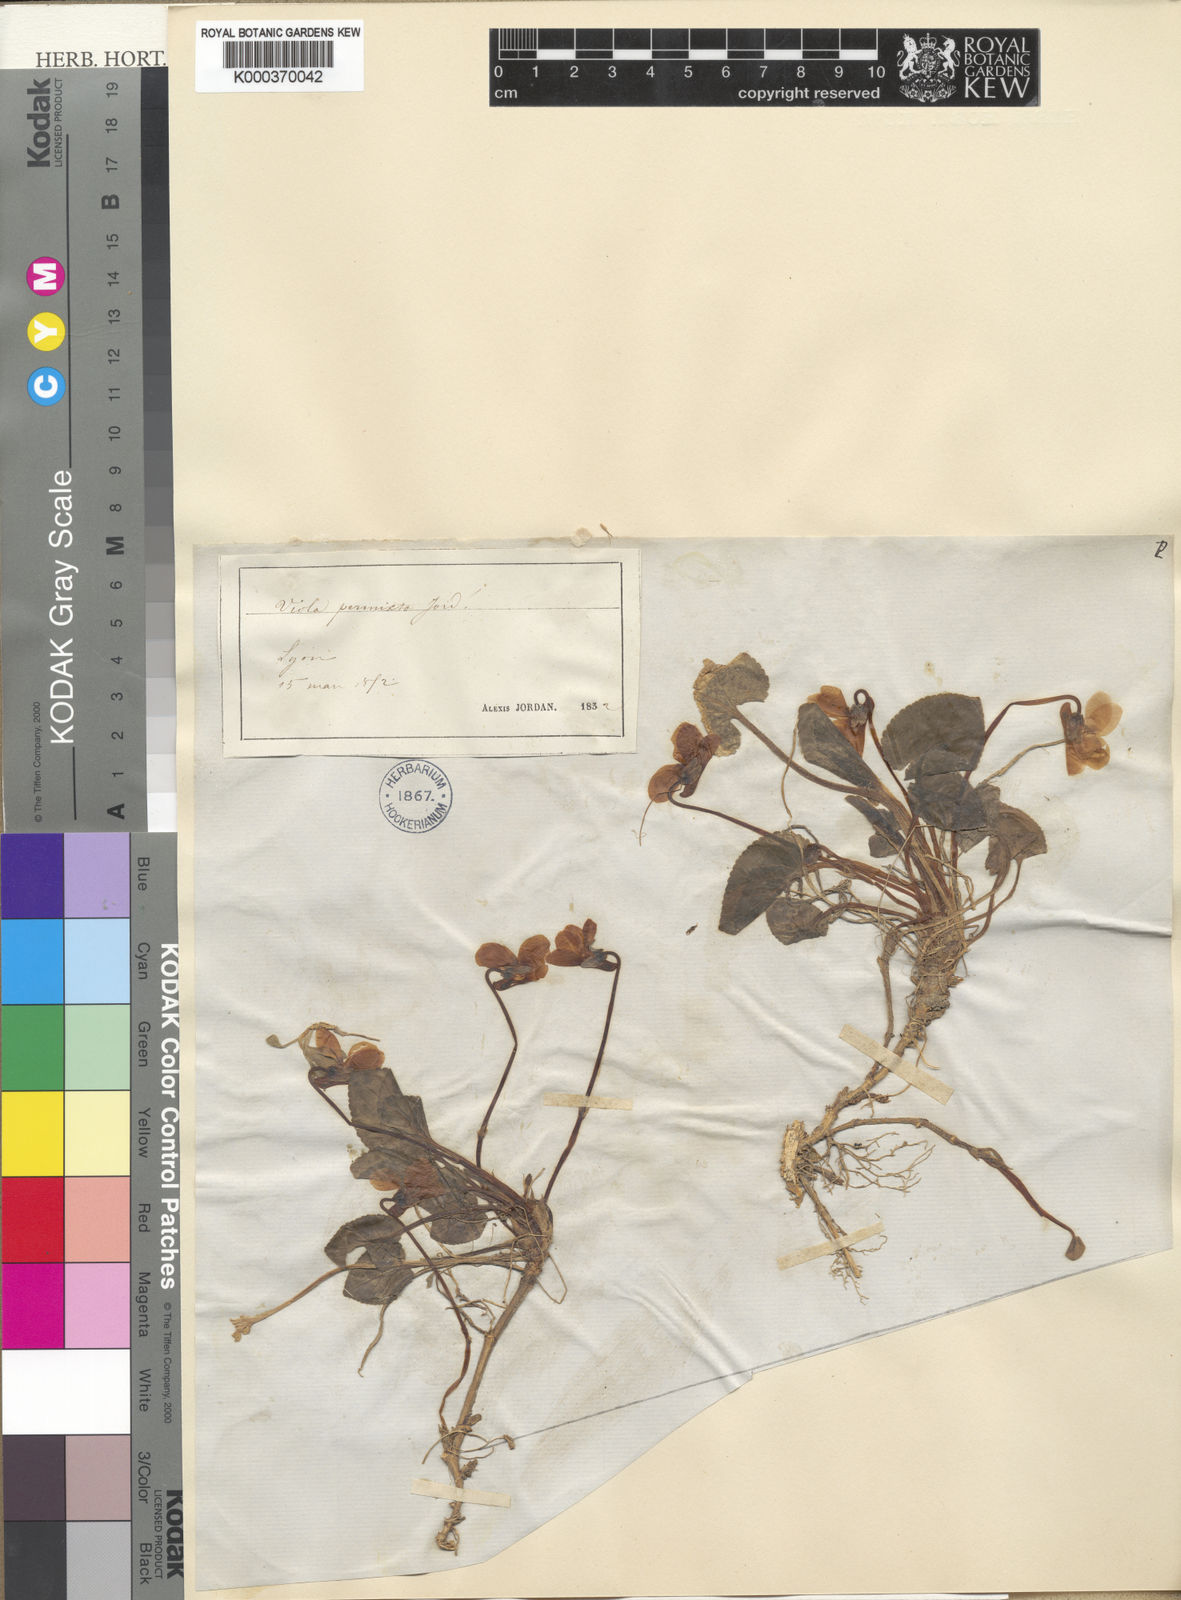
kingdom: Plantae
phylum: Tracheophyta
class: Magnoliopsida
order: Malpighiales
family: Violaceae
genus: Viola
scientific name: Viola hirta
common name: Hairy violet
